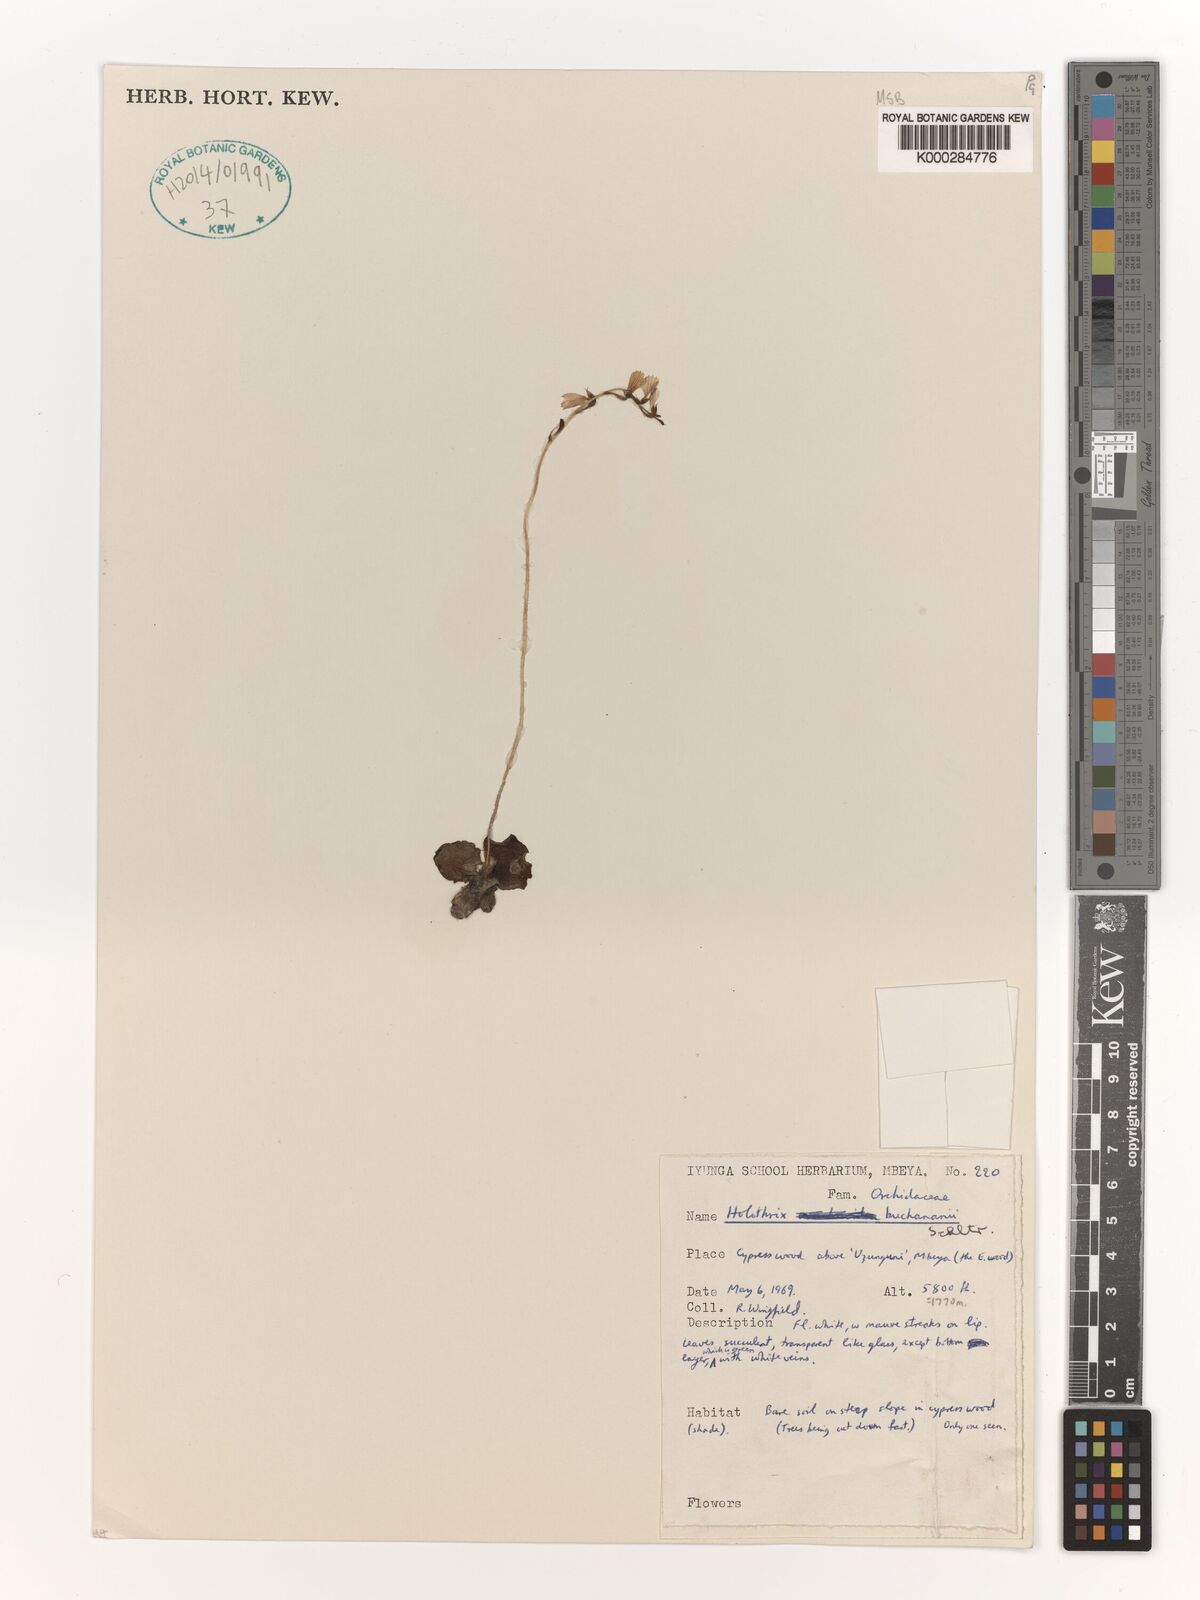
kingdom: Plantae
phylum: Tracheophyta
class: Liliopsida
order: Asparagales
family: Orchidaceae
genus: Holothrix
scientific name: Holothrix buchananii
